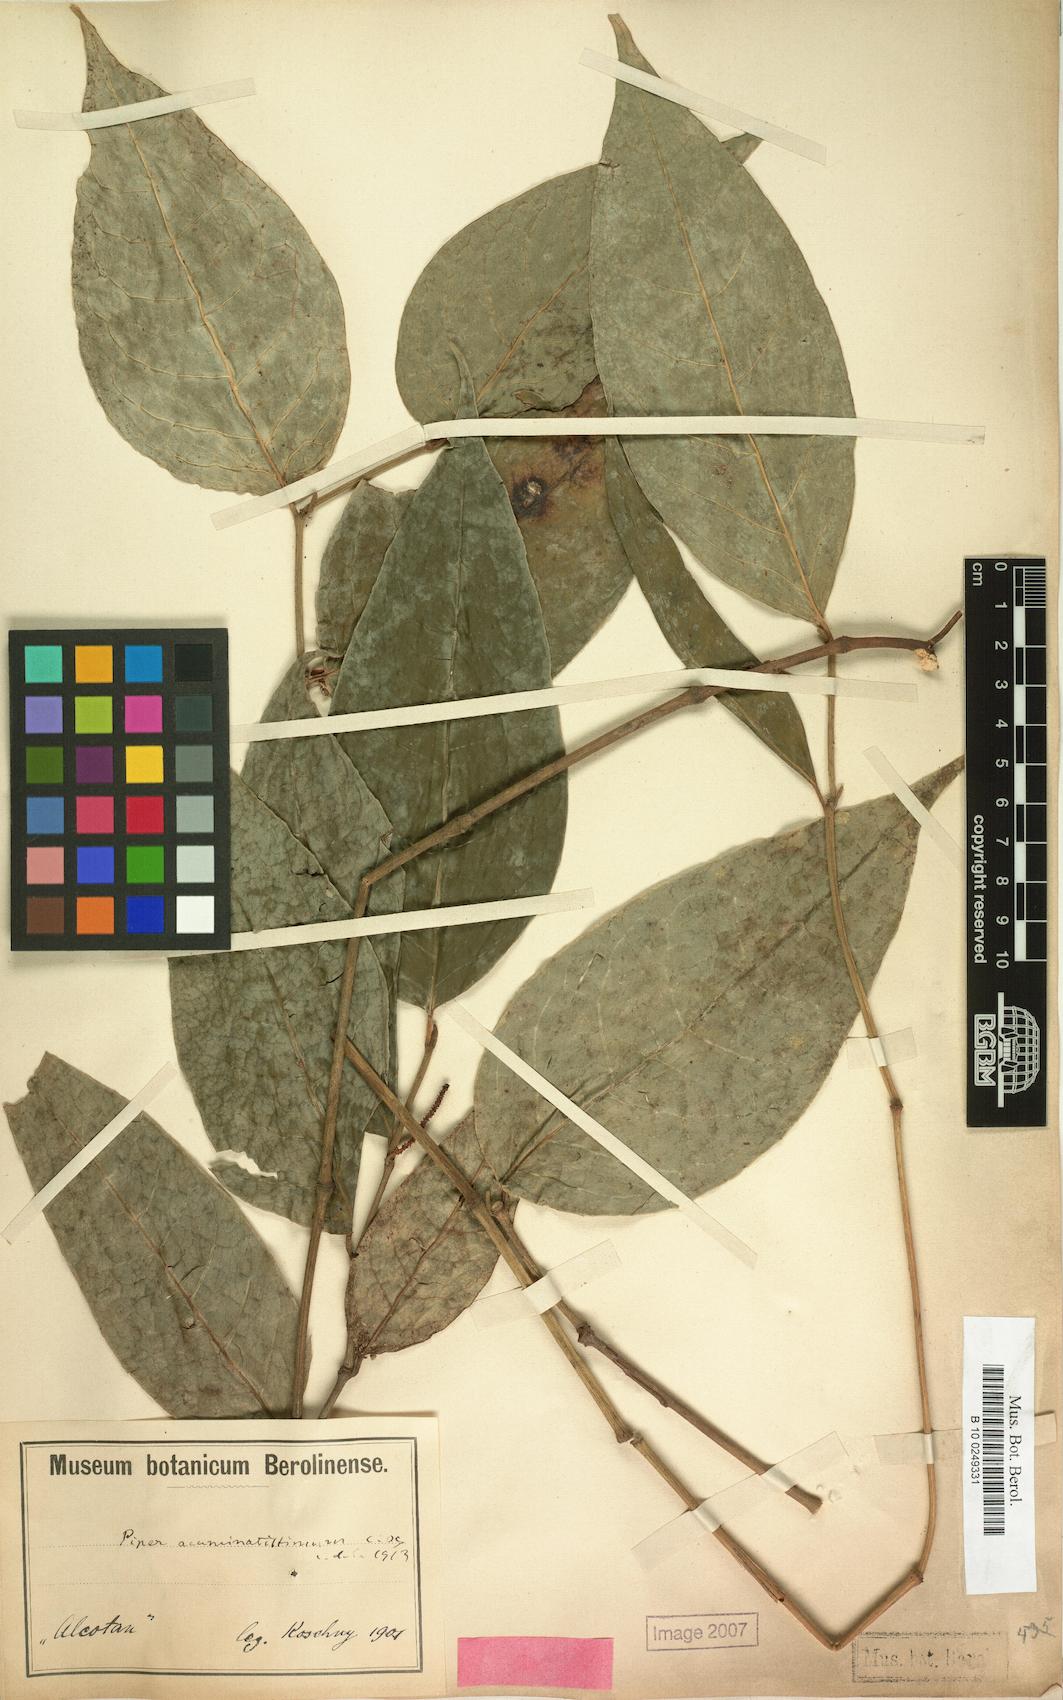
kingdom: Plantae
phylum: Tracheophyta
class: Magnoliopsida
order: Piperales
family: Piperaceae
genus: Piper
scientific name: Piper darienense
